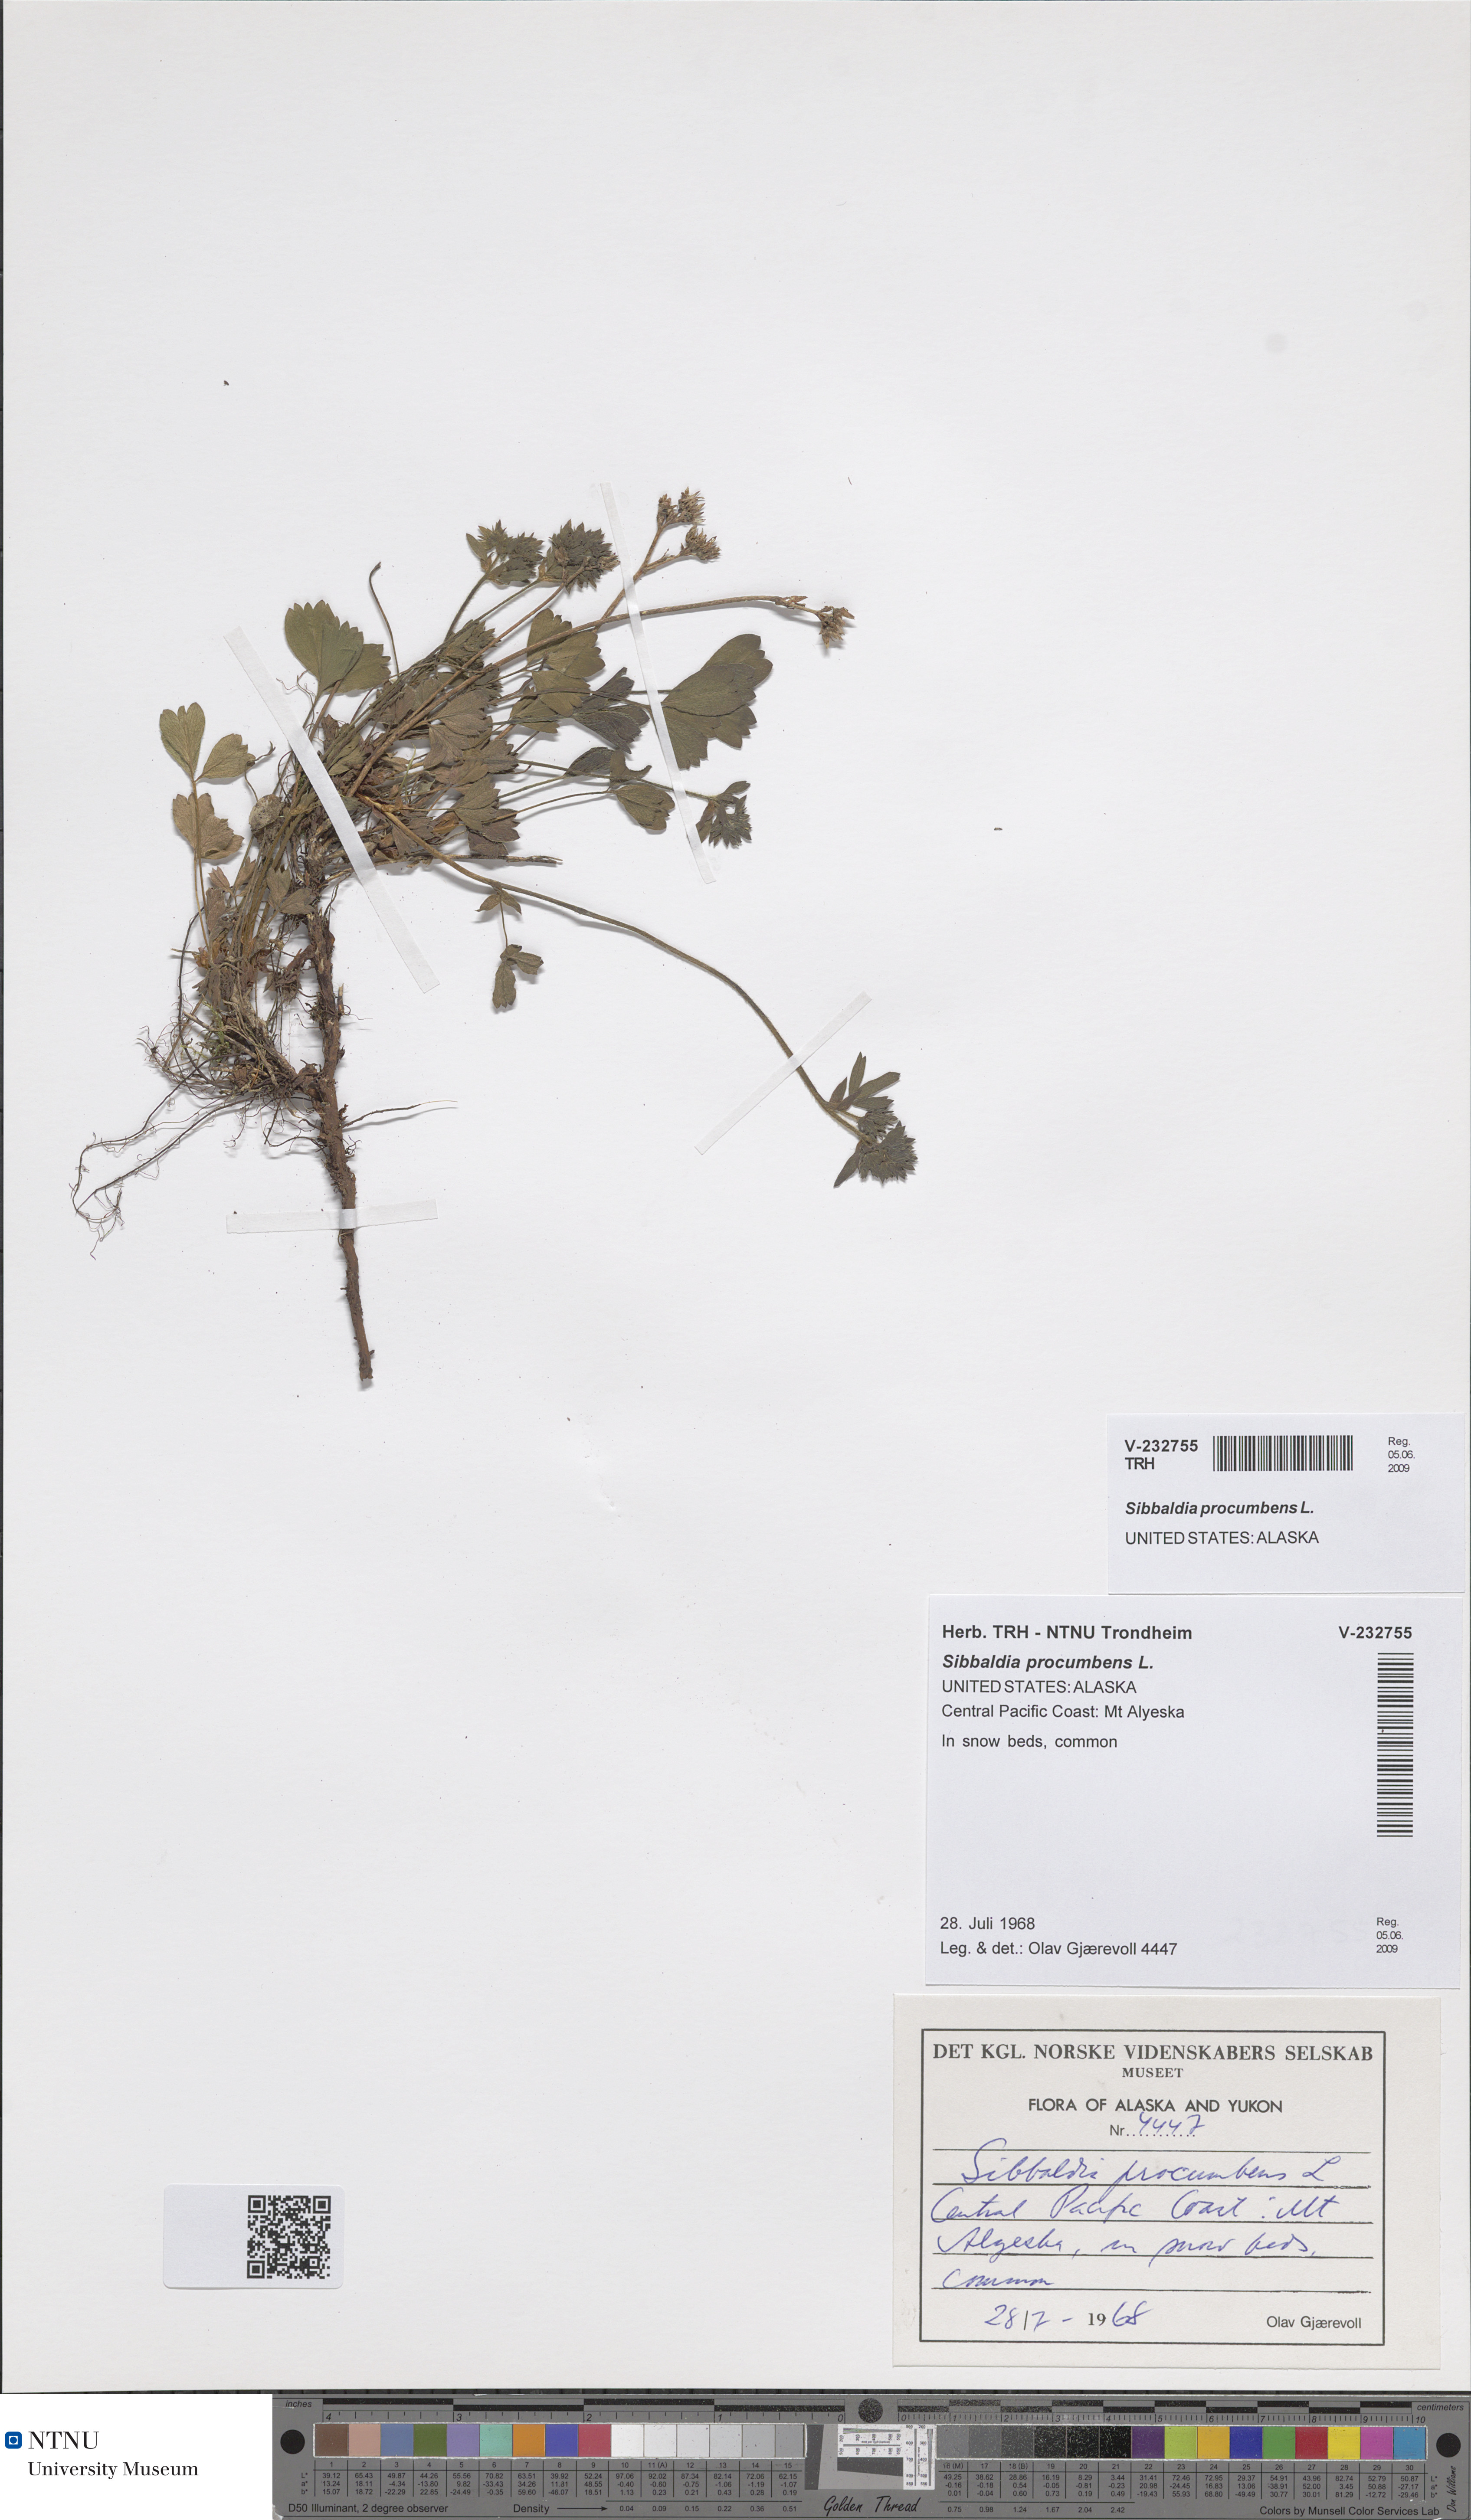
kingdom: Plantae
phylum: Tracheophyta
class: Magnoliopsida
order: Rosales
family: Rosaceae
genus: Sibbaldia
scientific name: Sibbaldia procumbens
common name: Creeping sibbaldia
